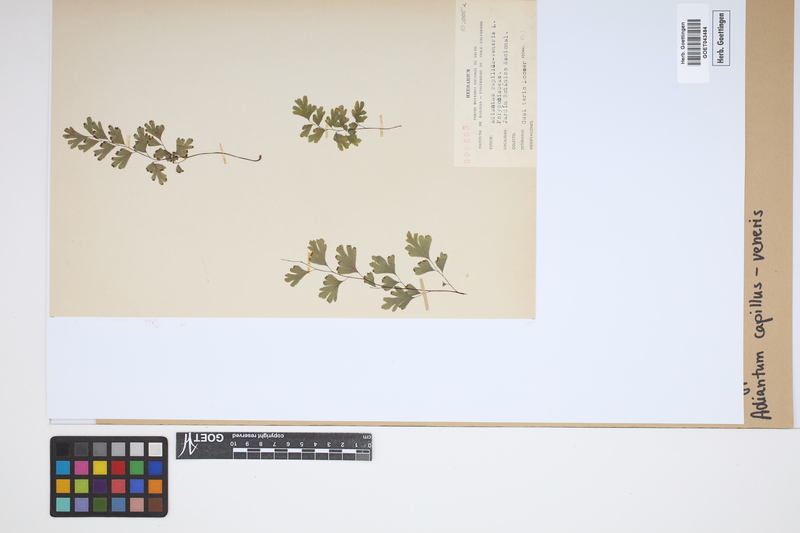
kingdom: Plantae
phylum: Tracheophyta
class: Polypodiopsida
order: Polypodiales
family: Pteridaceae
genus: Adiantum
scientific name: Adiantum capillus-veneris
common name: Maidenhair fern
